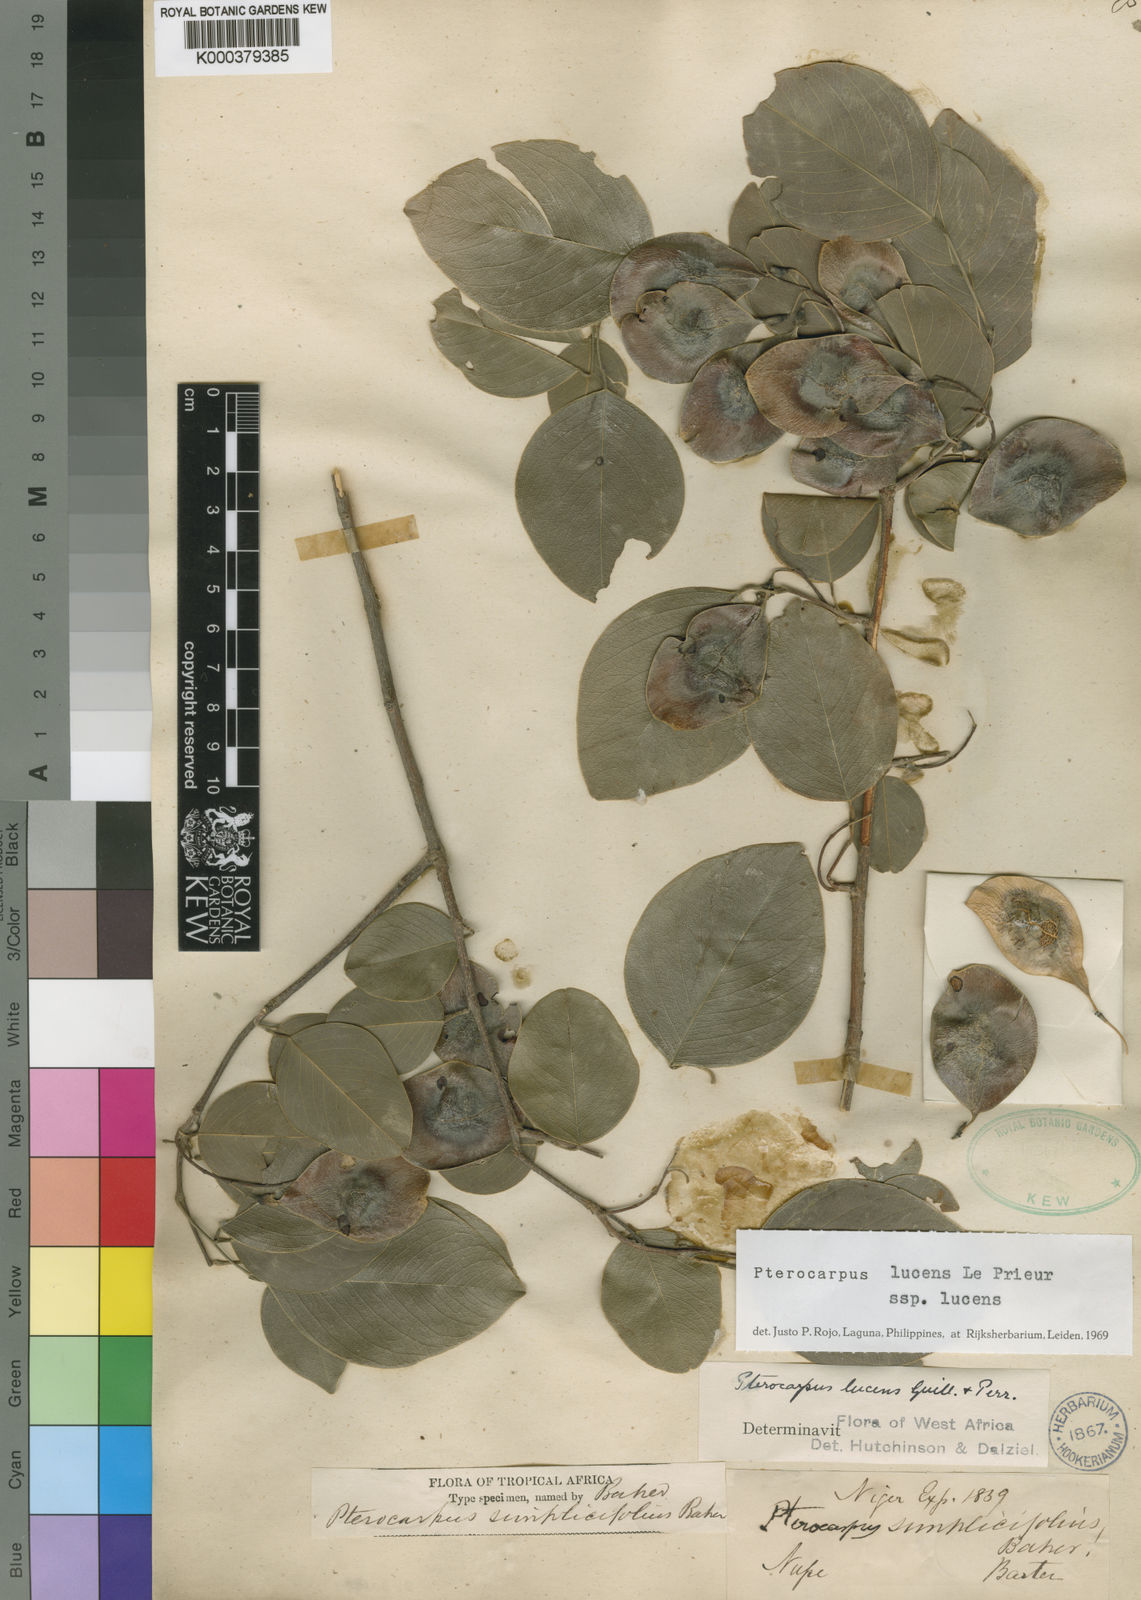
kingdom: Plantae
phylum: Tracheophyta
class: Magnoliopsida
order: Fabales
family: Fabaceae
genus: Pterocarpus
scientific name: Pterocarpus lucens
